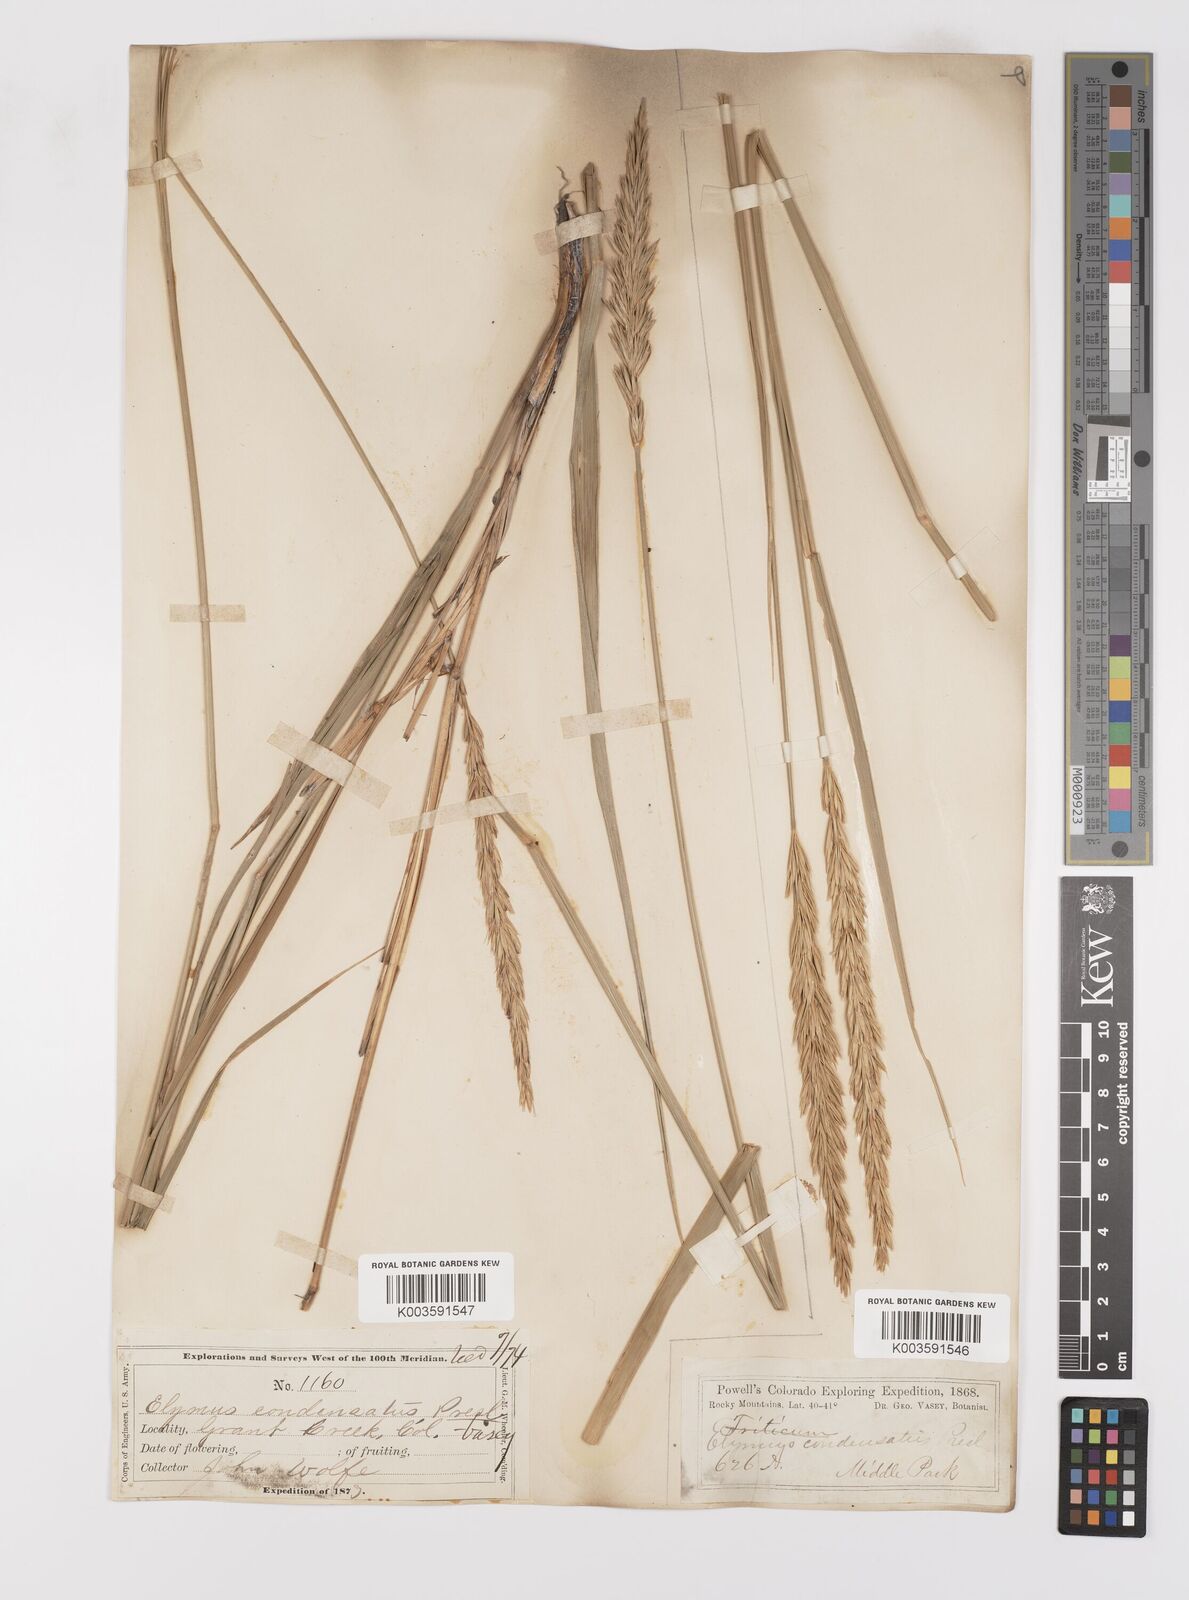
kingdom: Plantae
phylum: Tracheophyta
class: Liliopsida
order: Poales
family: Poaceae
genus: Leymus
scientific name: Leymus condensatus
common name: Giant wild rye
